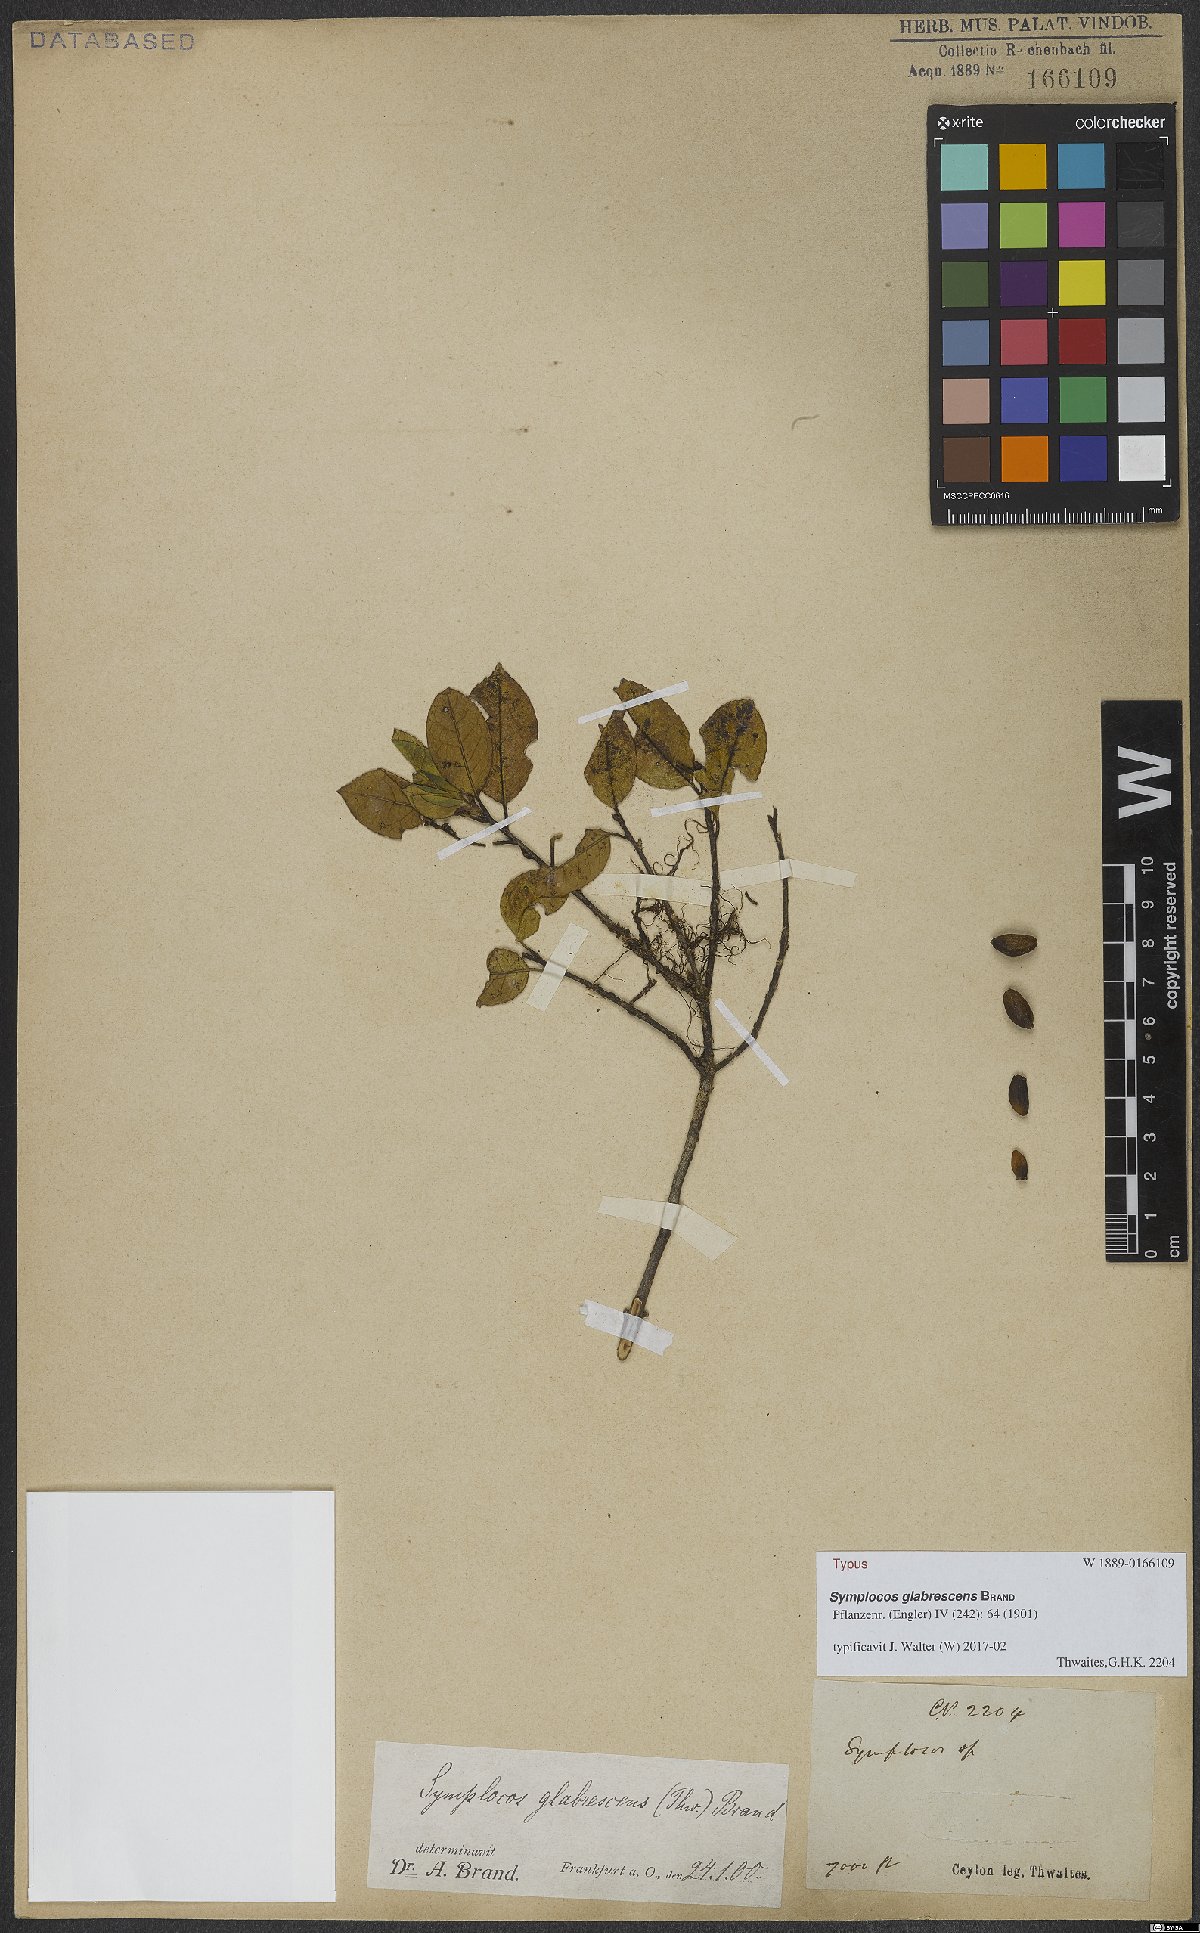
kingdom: Plantae
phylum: Tracheophyta
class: Magnoliopsida
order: Ericales
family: Symplocaceae
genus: Symplocos
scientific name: Symplocos elegans
